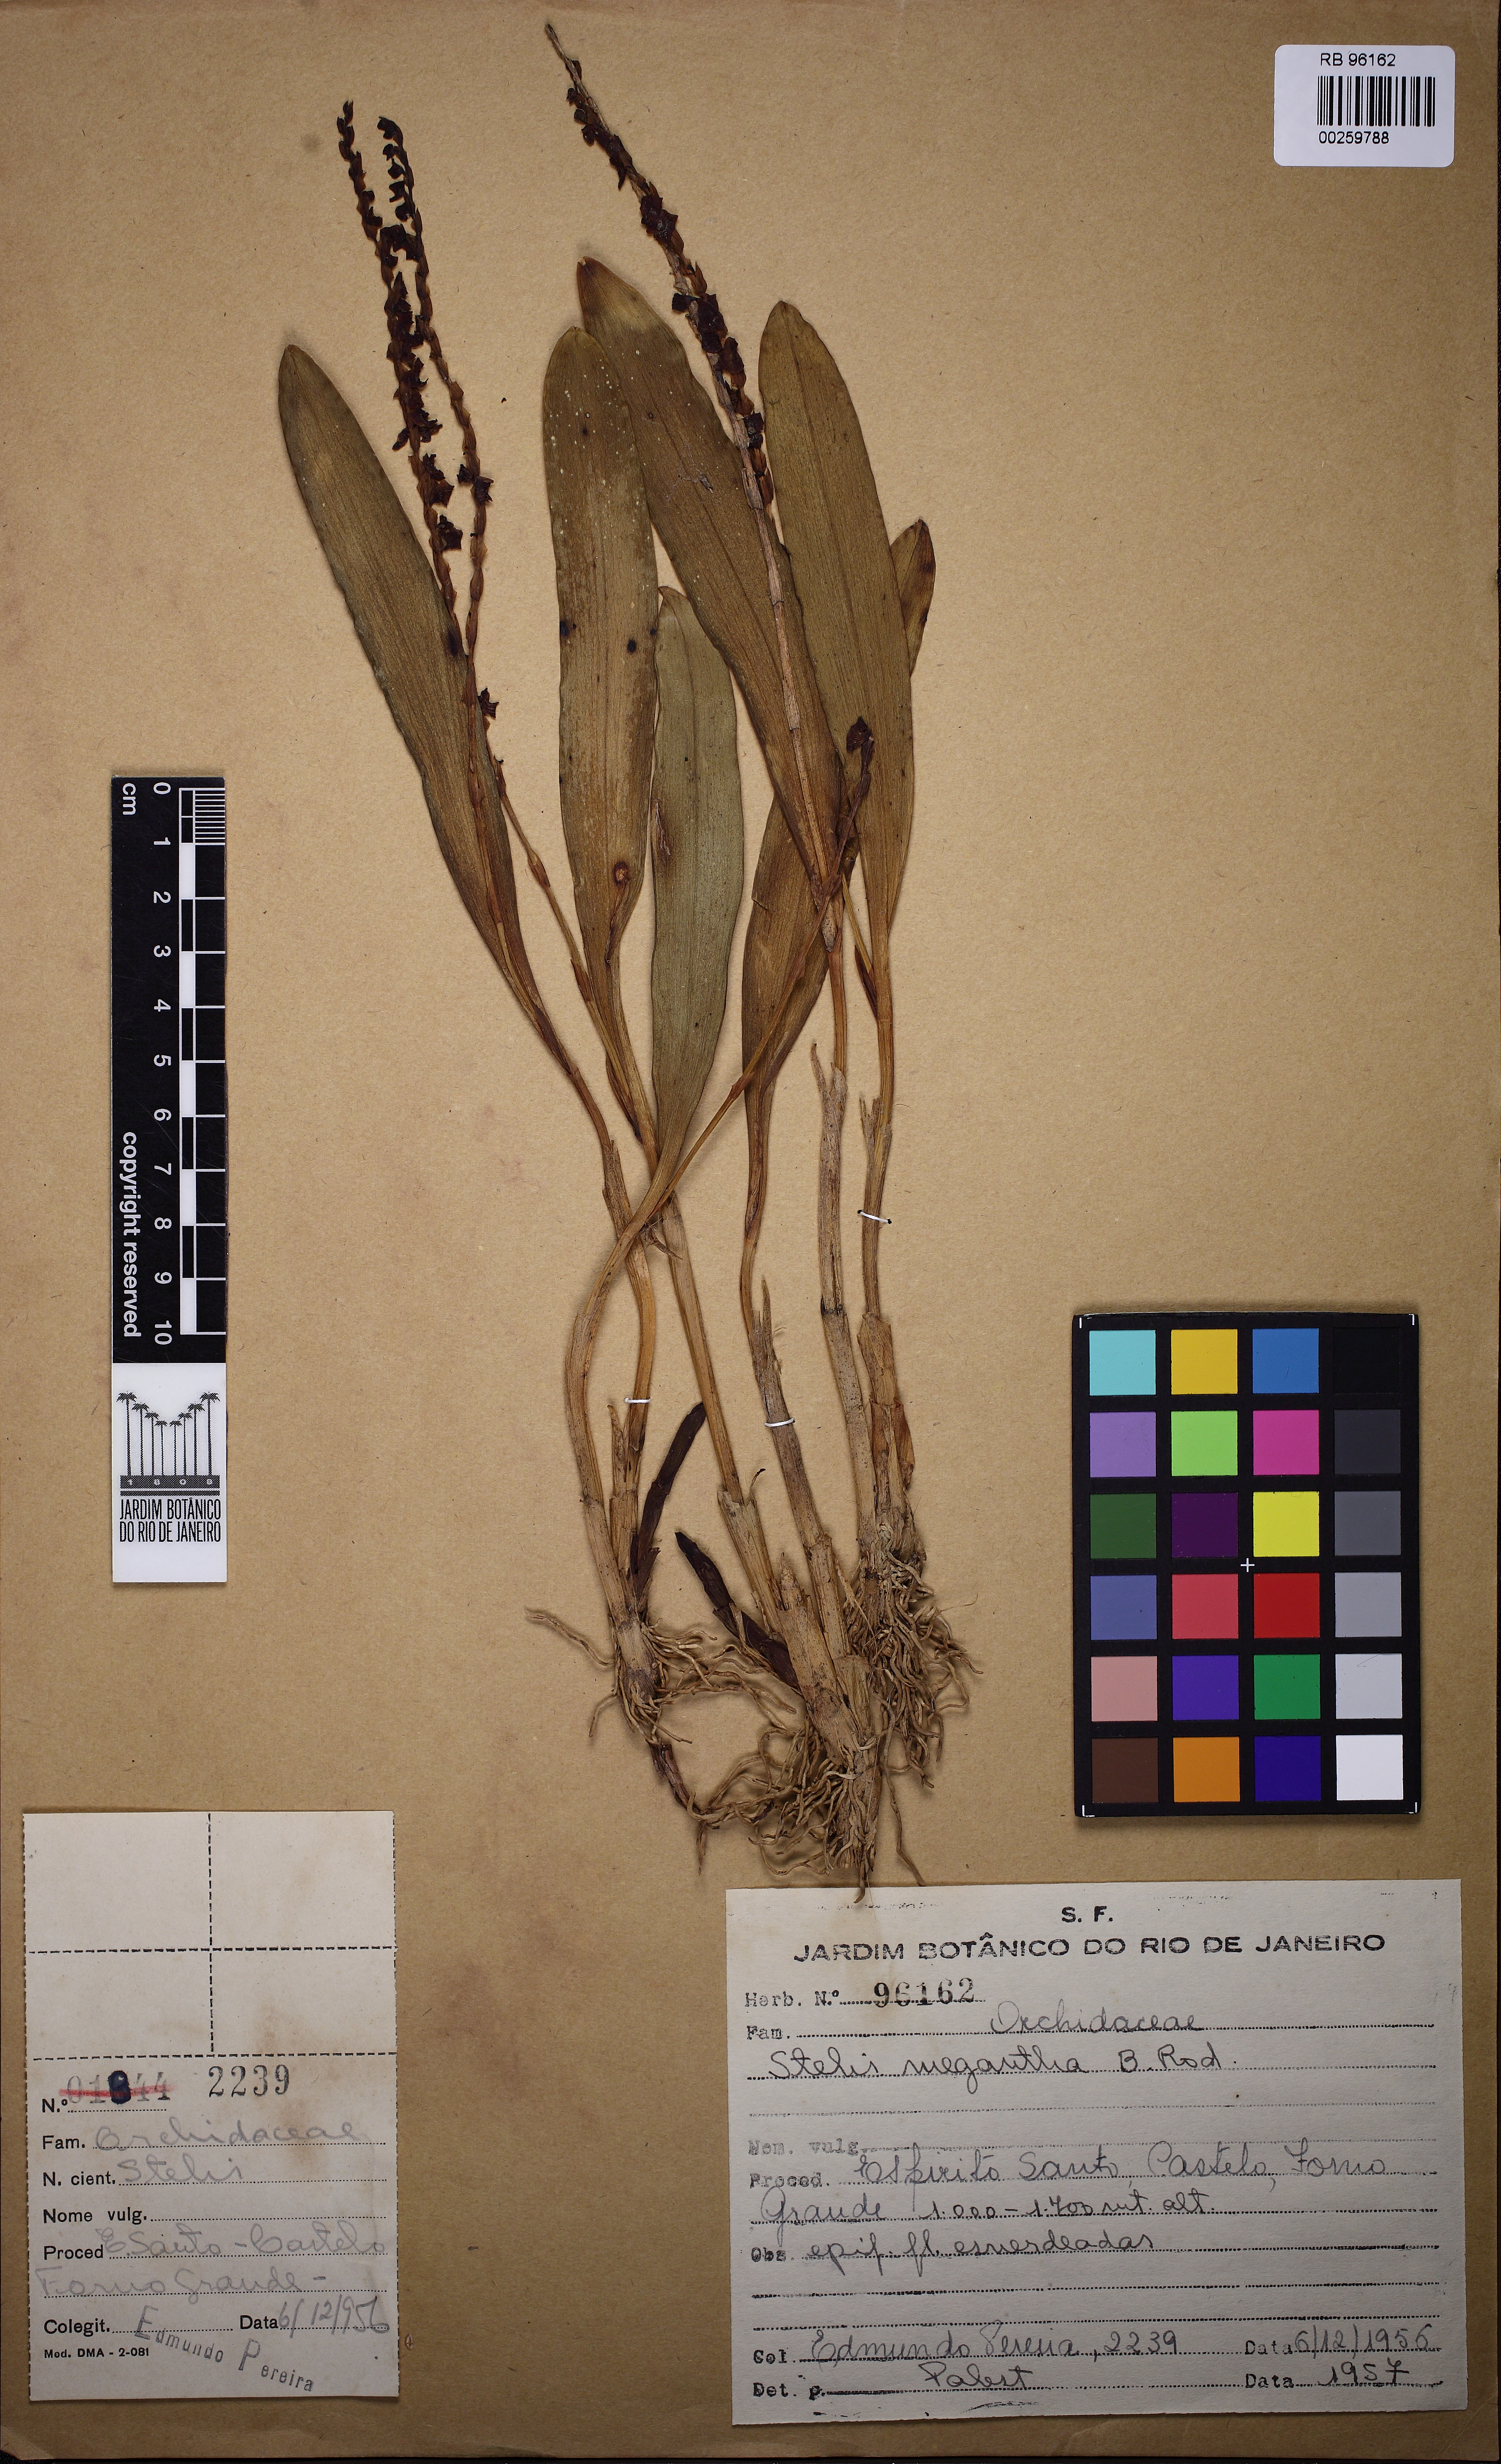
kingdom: Plantae
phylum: Tracheophyta
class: Liliopsida
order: Asparagales
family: Orchidaceae
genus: Stelis
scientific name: Stelis grandiflora
